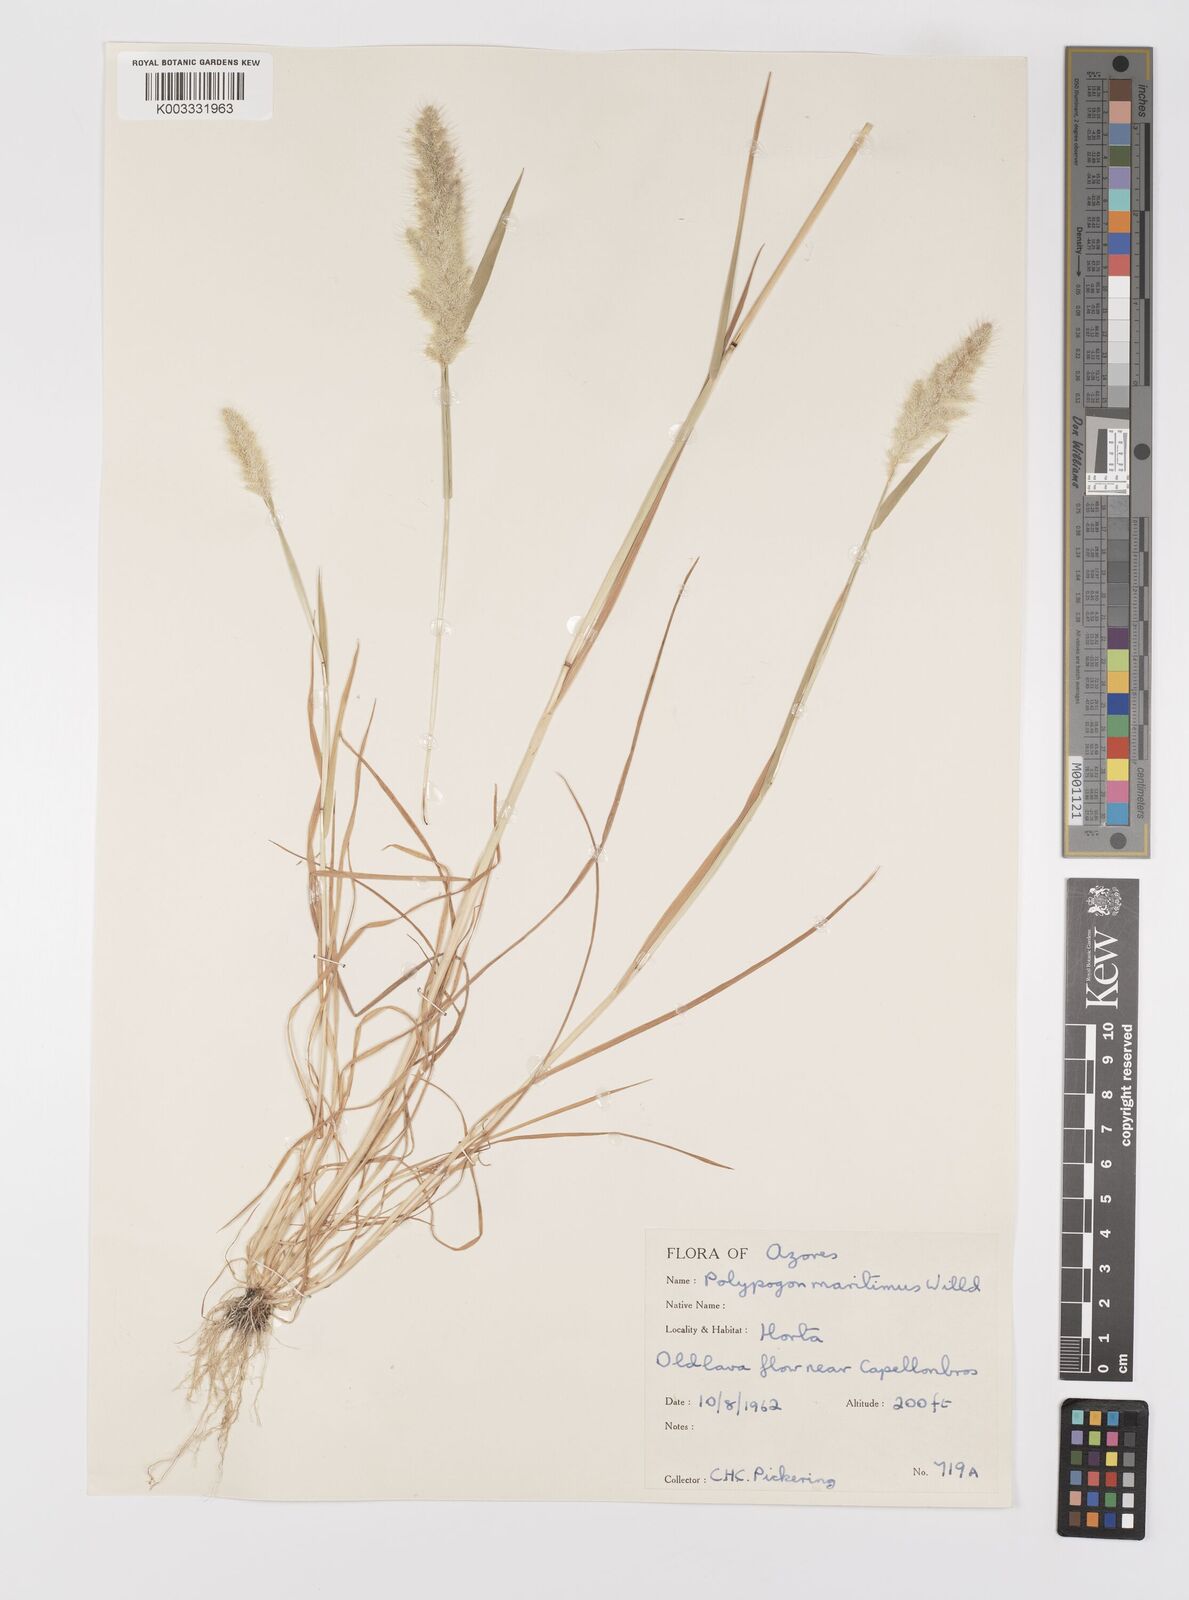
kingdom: Plantae
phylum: Tracheophyta
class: Liliopsida
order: Poales
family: Poaceae
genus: Polypogon
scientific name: Polypogon maritimus
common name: Mediterranean rabbitsfoot grass
